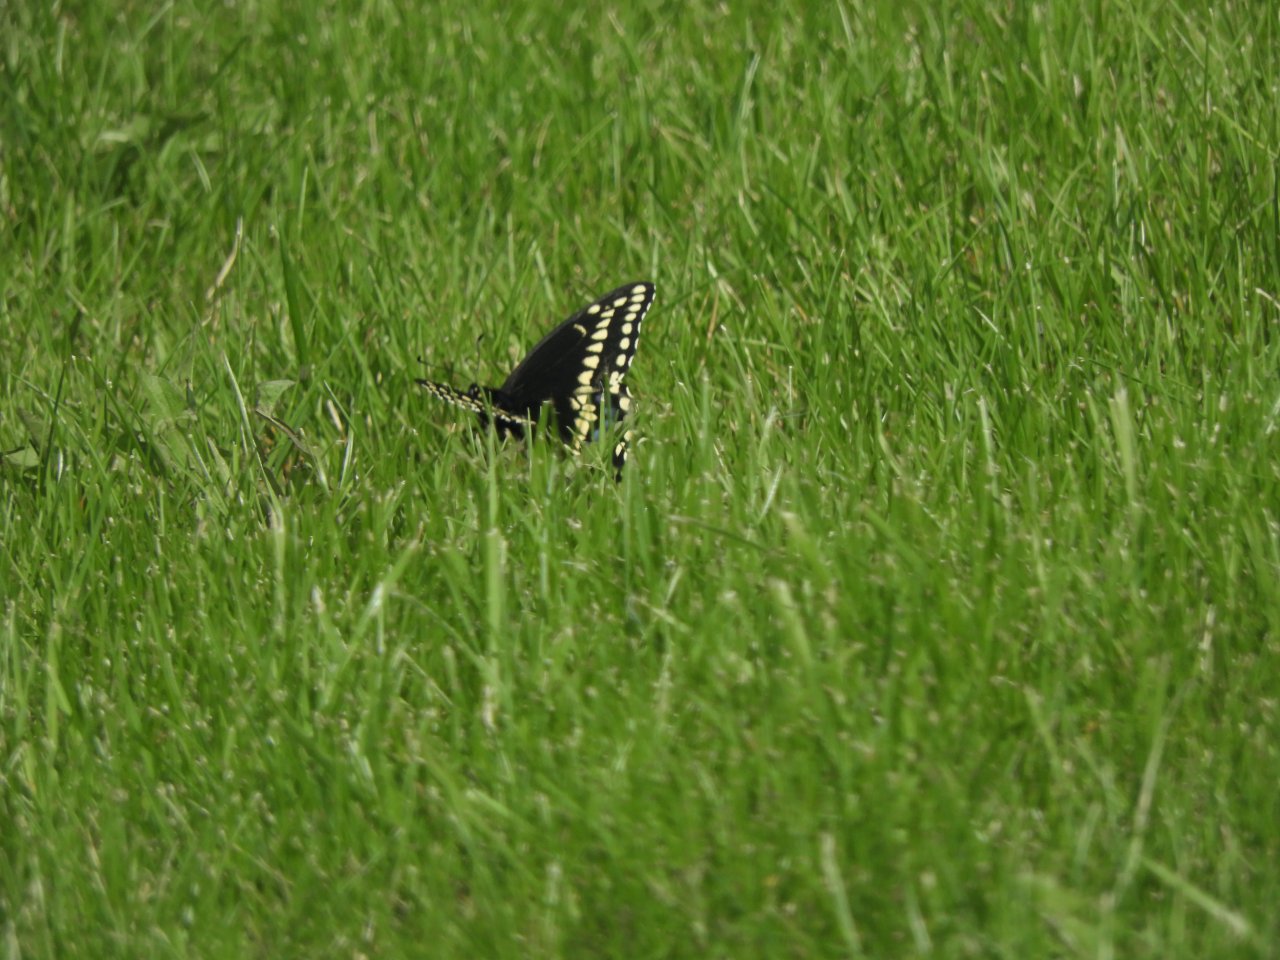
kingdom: Animalia
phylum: Arthropoda
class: Insecta
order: Lepidoptera
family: Papilionidae
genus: Papilio
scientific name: Papilio polyxenes
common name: Black Swallowtail
